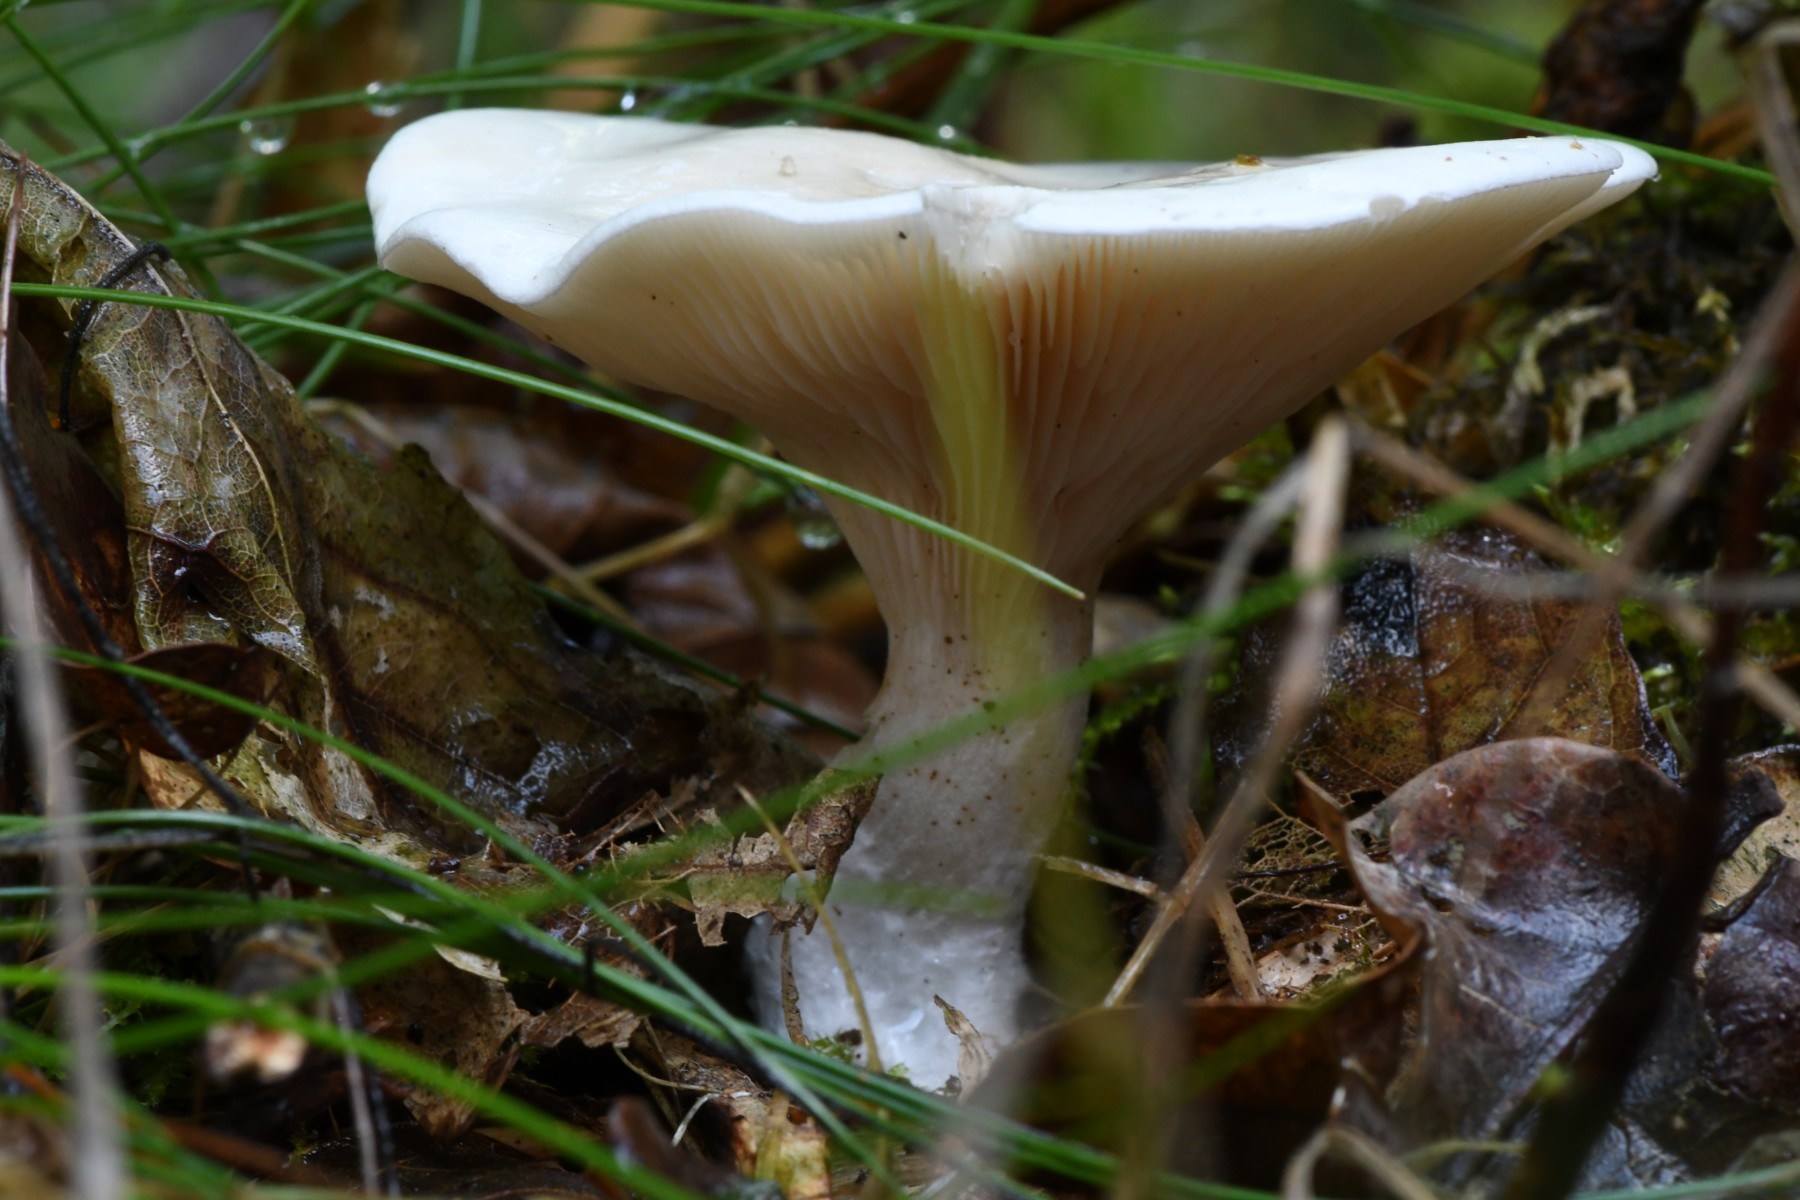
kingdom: Fungi
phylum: Basidiomycota
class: Agaricomycetes
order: Agaricales
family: Entolomataceae
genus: Clitopilus
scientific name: Clitopilus prunulus
